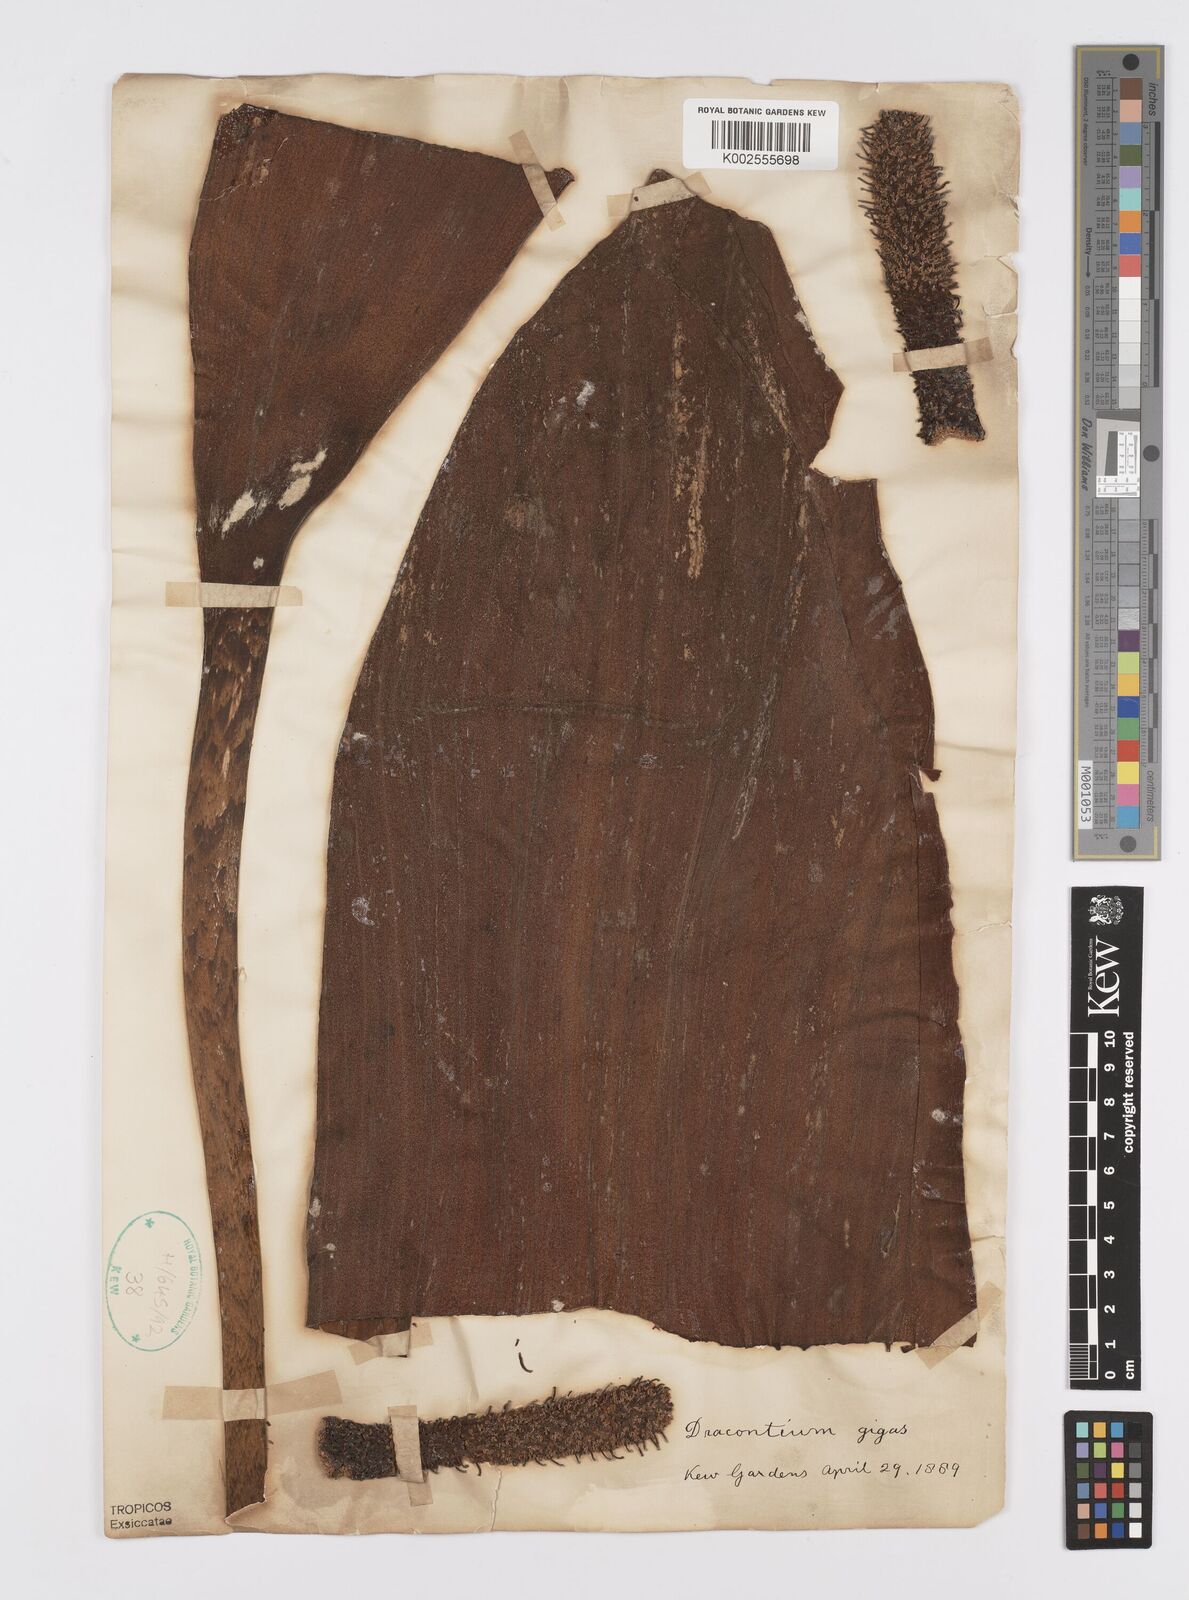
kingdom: Plantae
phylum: Tracheophyta
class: Liliopsida
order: Alismatales
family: Araceae
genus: Dracontium
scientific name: Dracontium gigas
